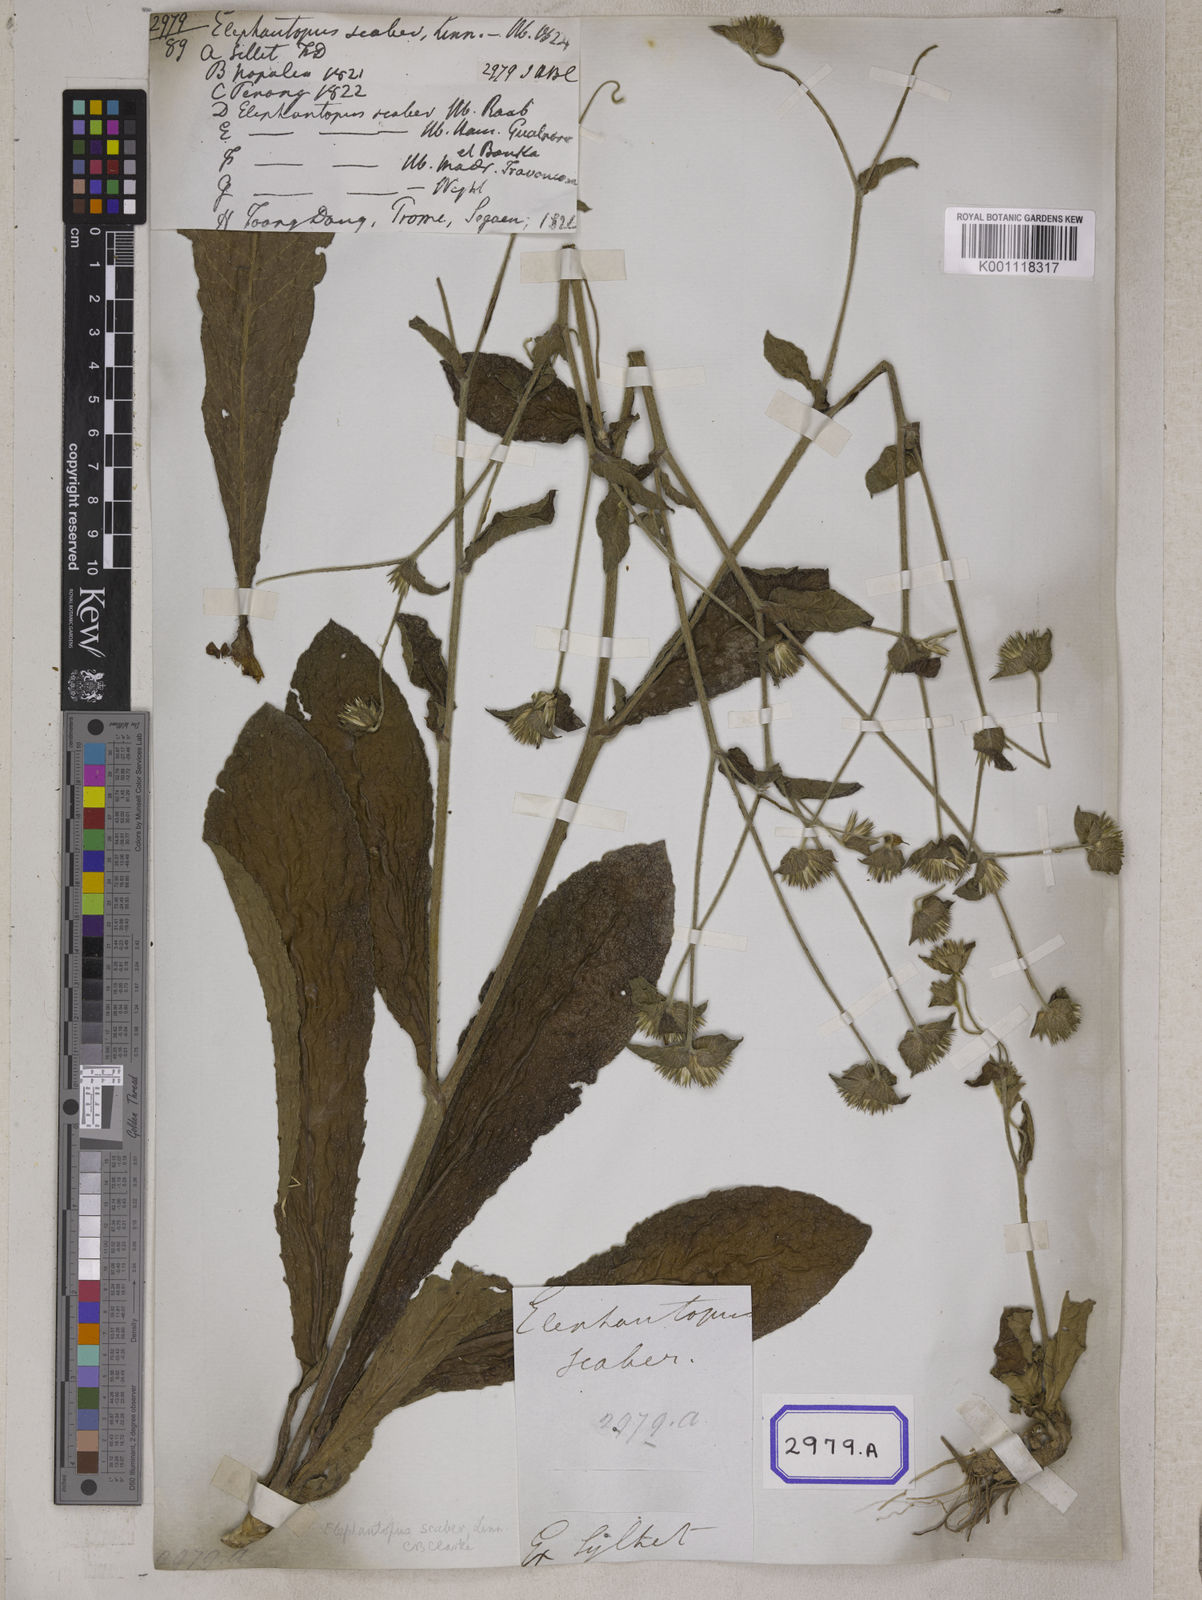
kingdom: Plantae
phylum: Tracheophyta
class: Magnoliopsida
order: Asterales
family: Asteraceae
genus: Elephantopus
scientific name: Elephantopus scaber
